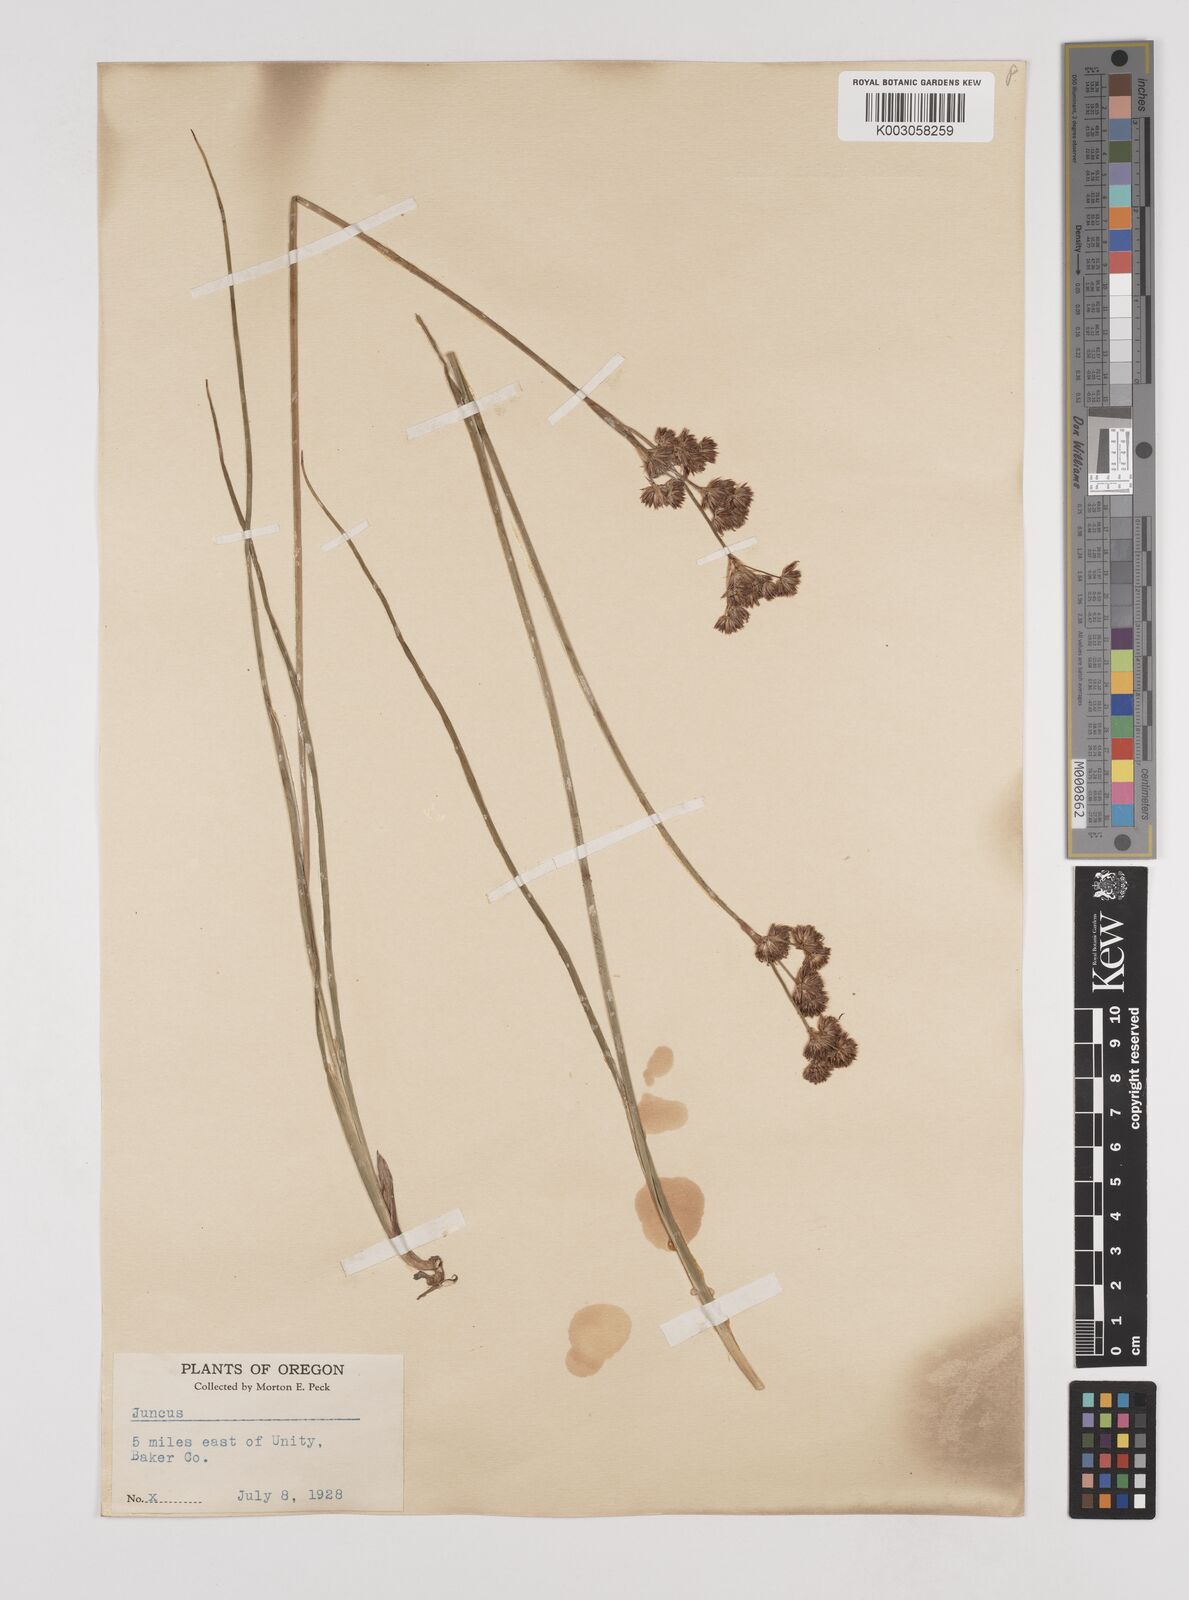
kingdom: Plantae
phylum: Tracheophyta
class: Liliopsida
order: Poales
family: Juncaceae
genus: Juncus
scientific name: Juncus
